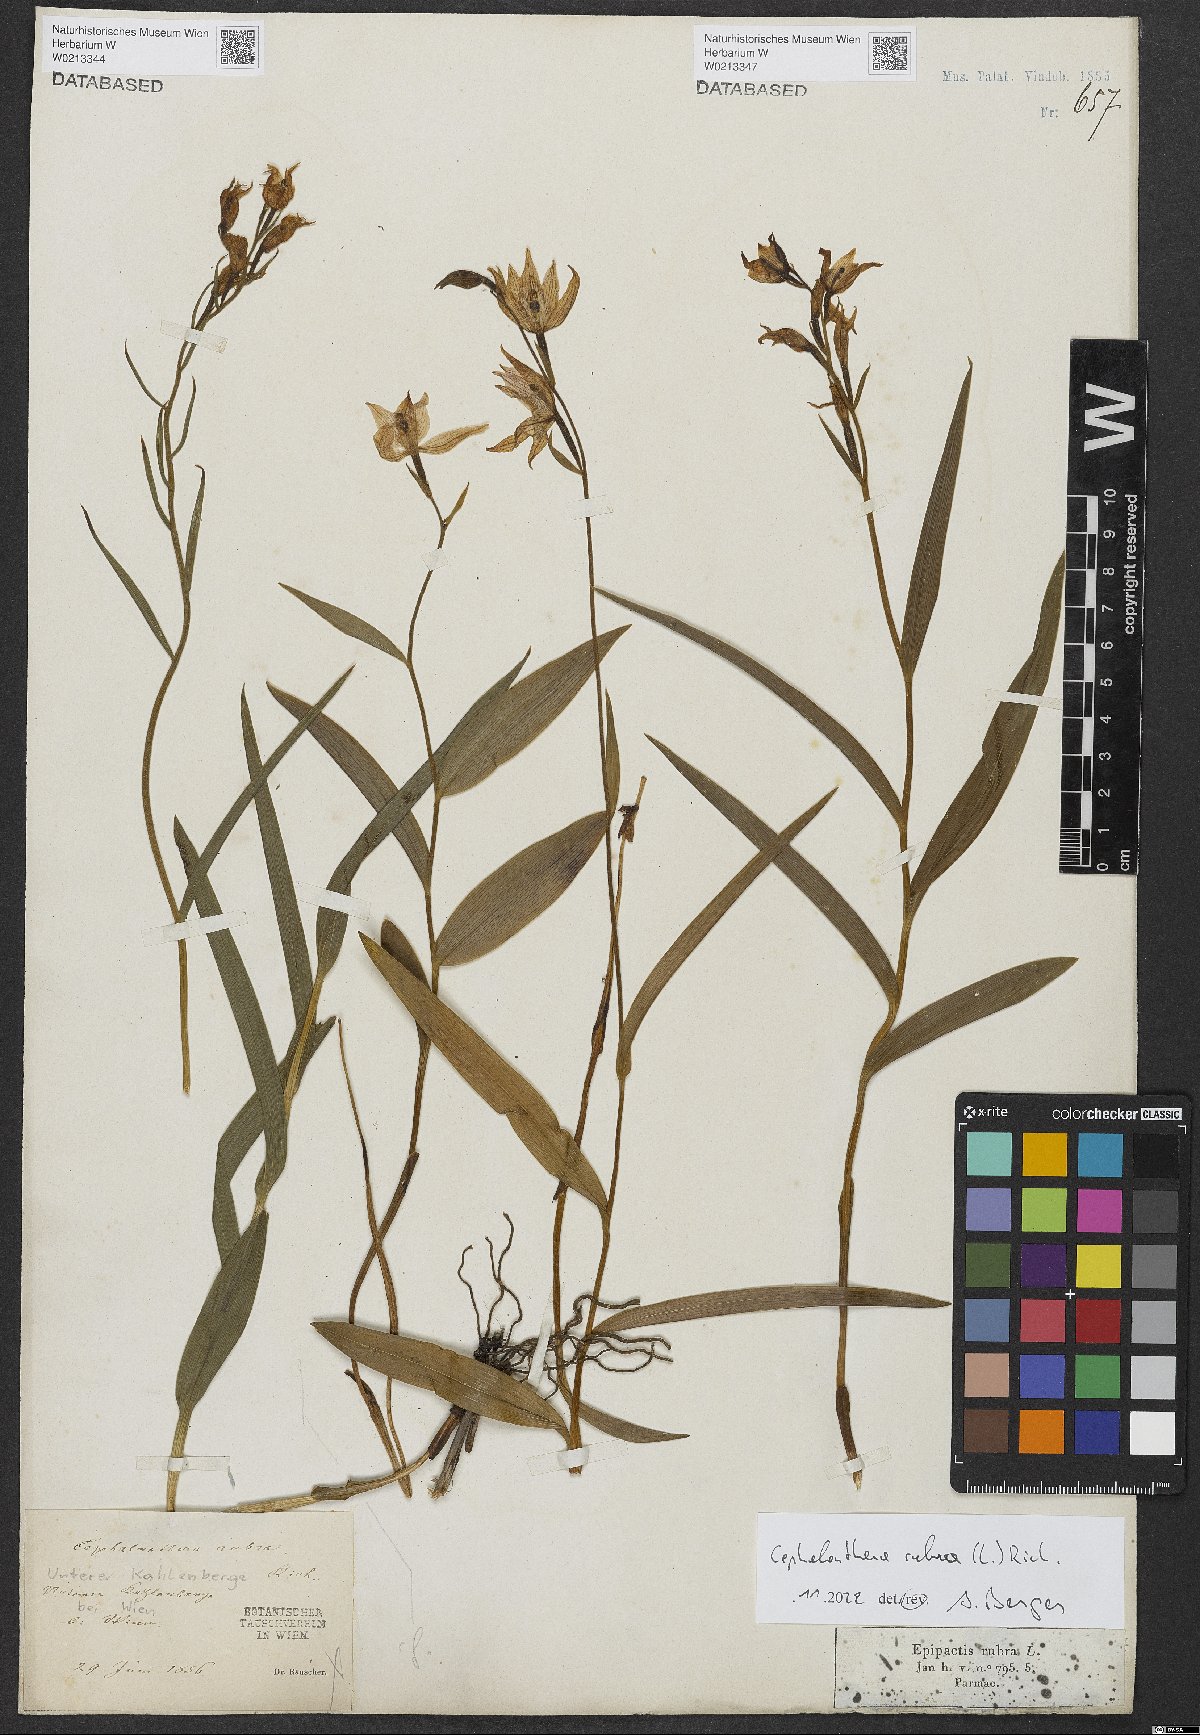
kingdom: Plantae
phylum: Tracheophyta
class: Liliopsida
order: Asparagales
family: Orchidaceae
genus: Cephalanthera
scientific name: Cephalanthera rubra
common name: Red helleborine
